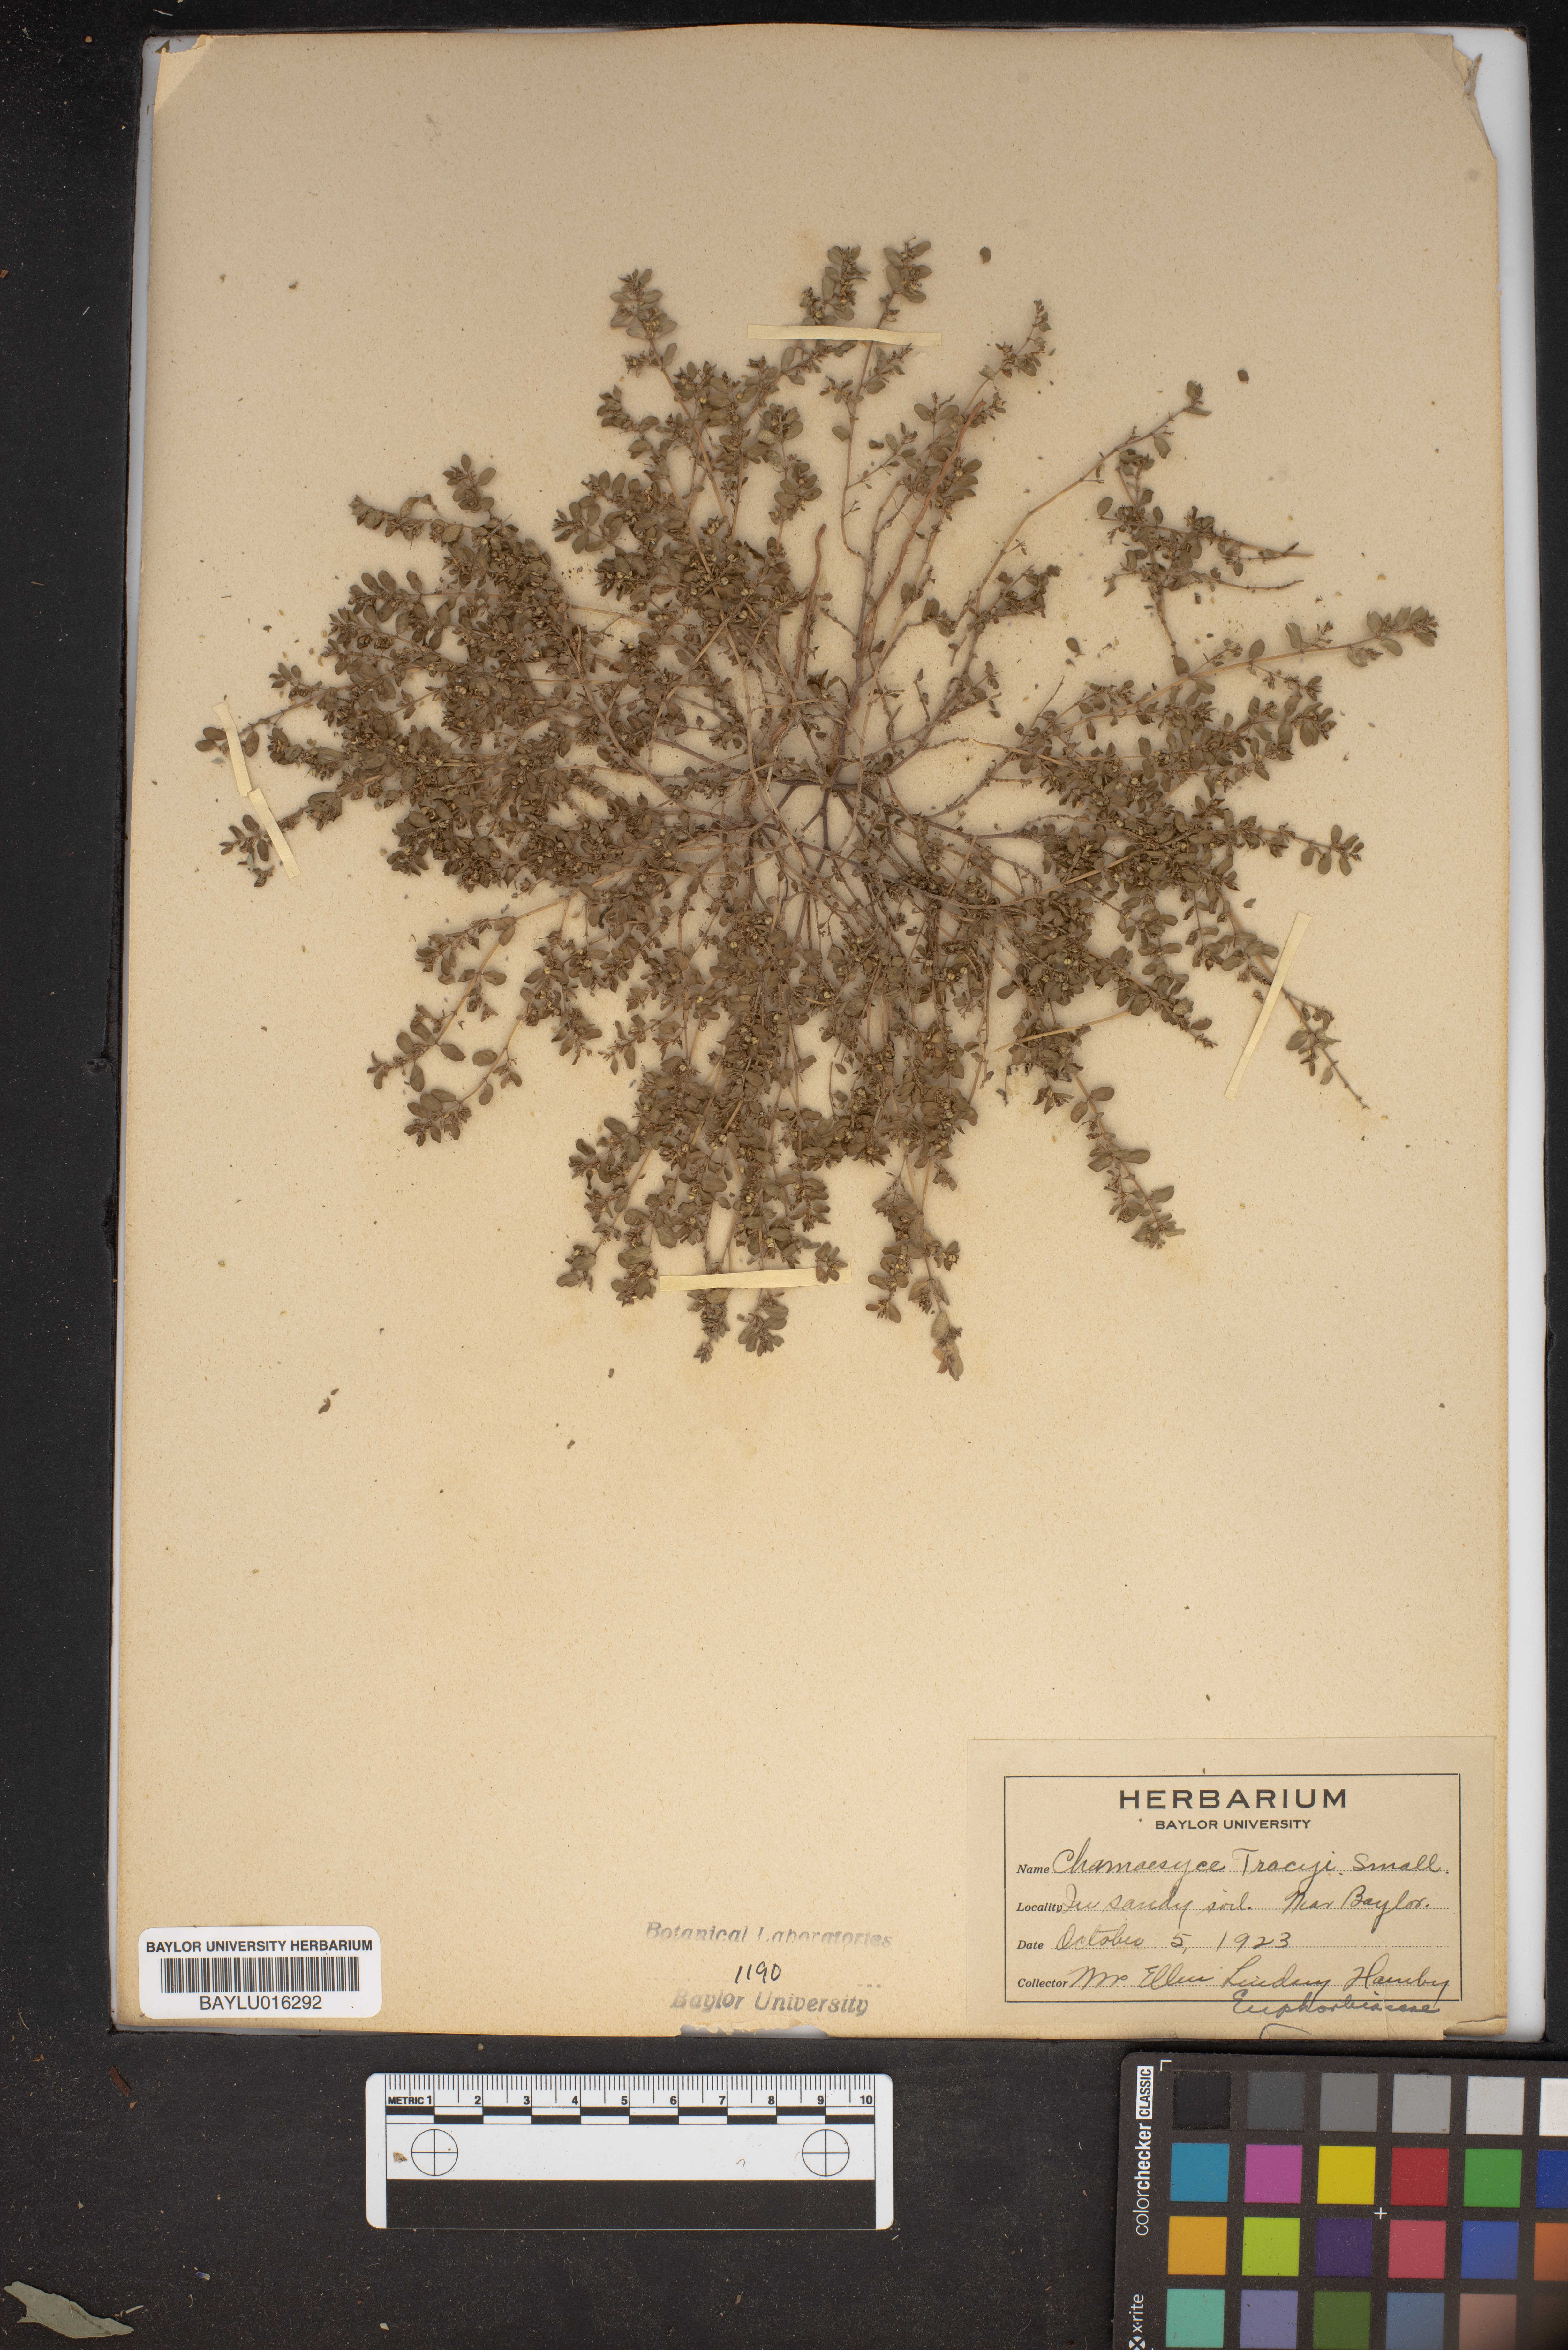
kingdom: Plantae
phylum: Tracheophyta
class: Magnoliopsida
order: Malpighiales
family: Euphorbiaceae
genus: Euphorbia
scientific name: Euphorbia maculata
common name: Spotted spurge
